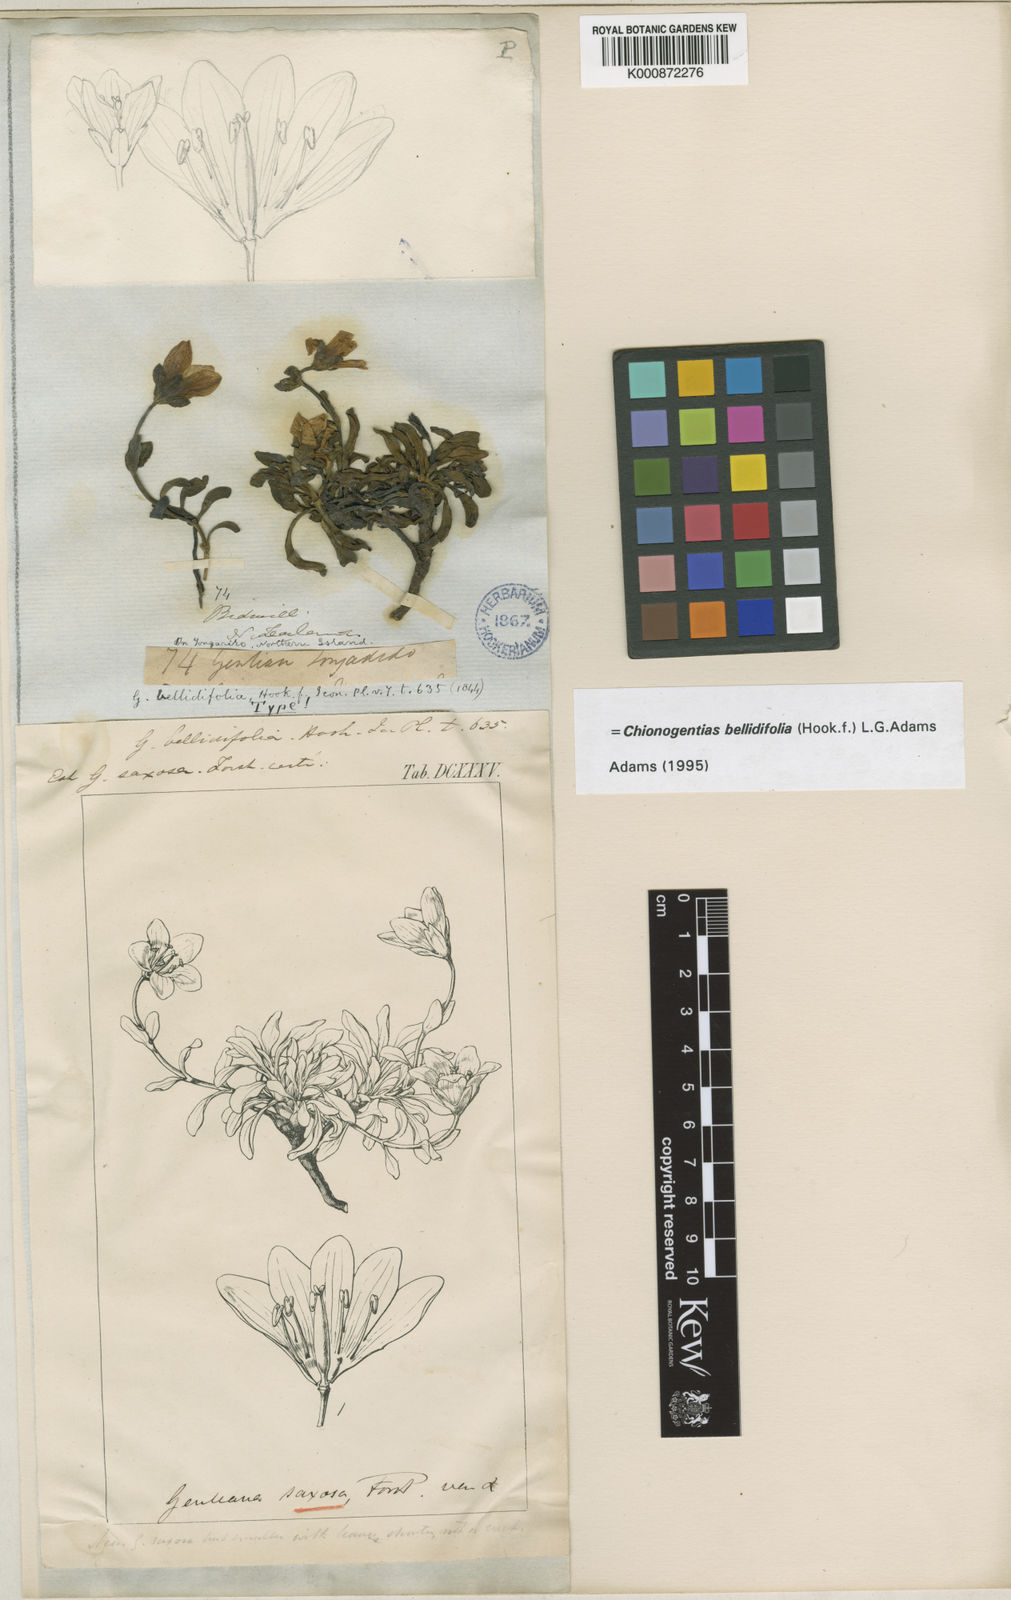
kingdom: Plantae
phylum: Tracheophyta
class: Magnoliopsida
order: Gentianales
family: Gentianaceae
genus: Gentianella
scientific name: Gentianella bellidifolia
